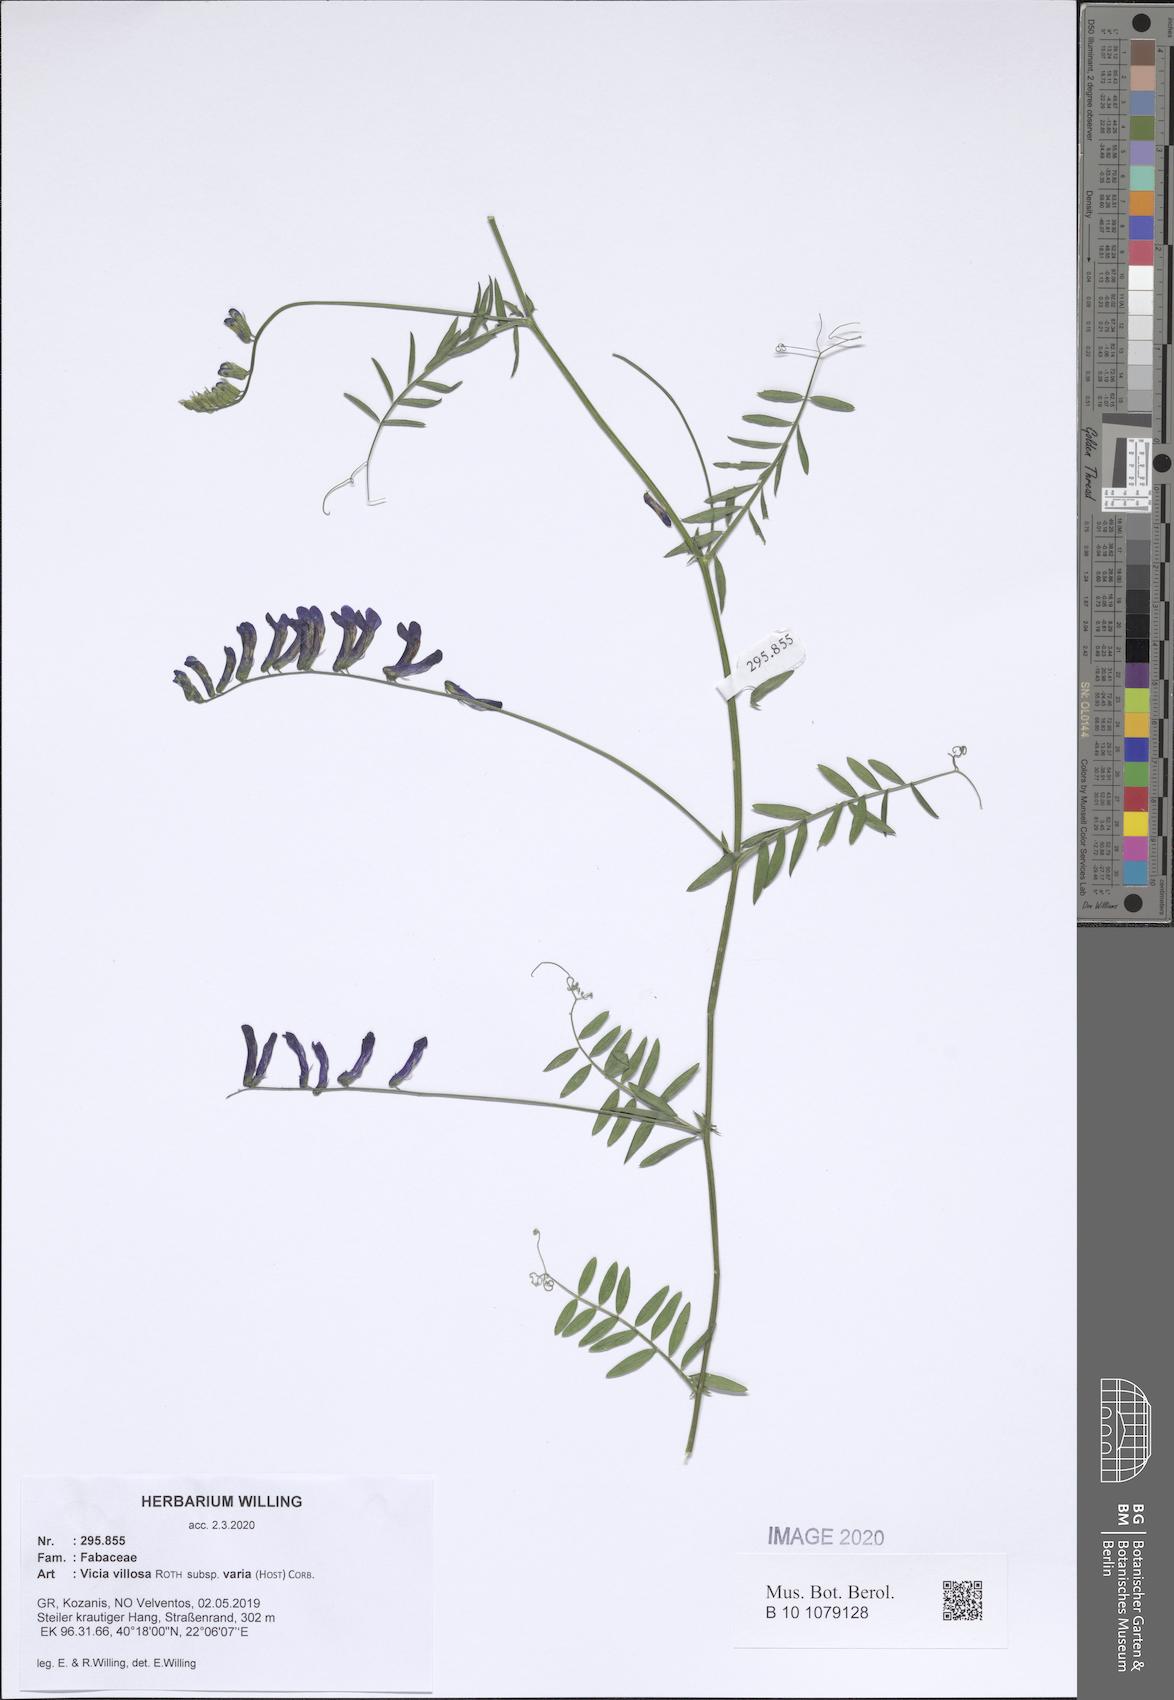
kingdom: Plantae
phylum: Tracheophyta
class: Magnoliopsida
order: Fabales
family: Fabaceae
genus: Vicia
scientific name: Vicia villosa
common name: Fodder vetch
